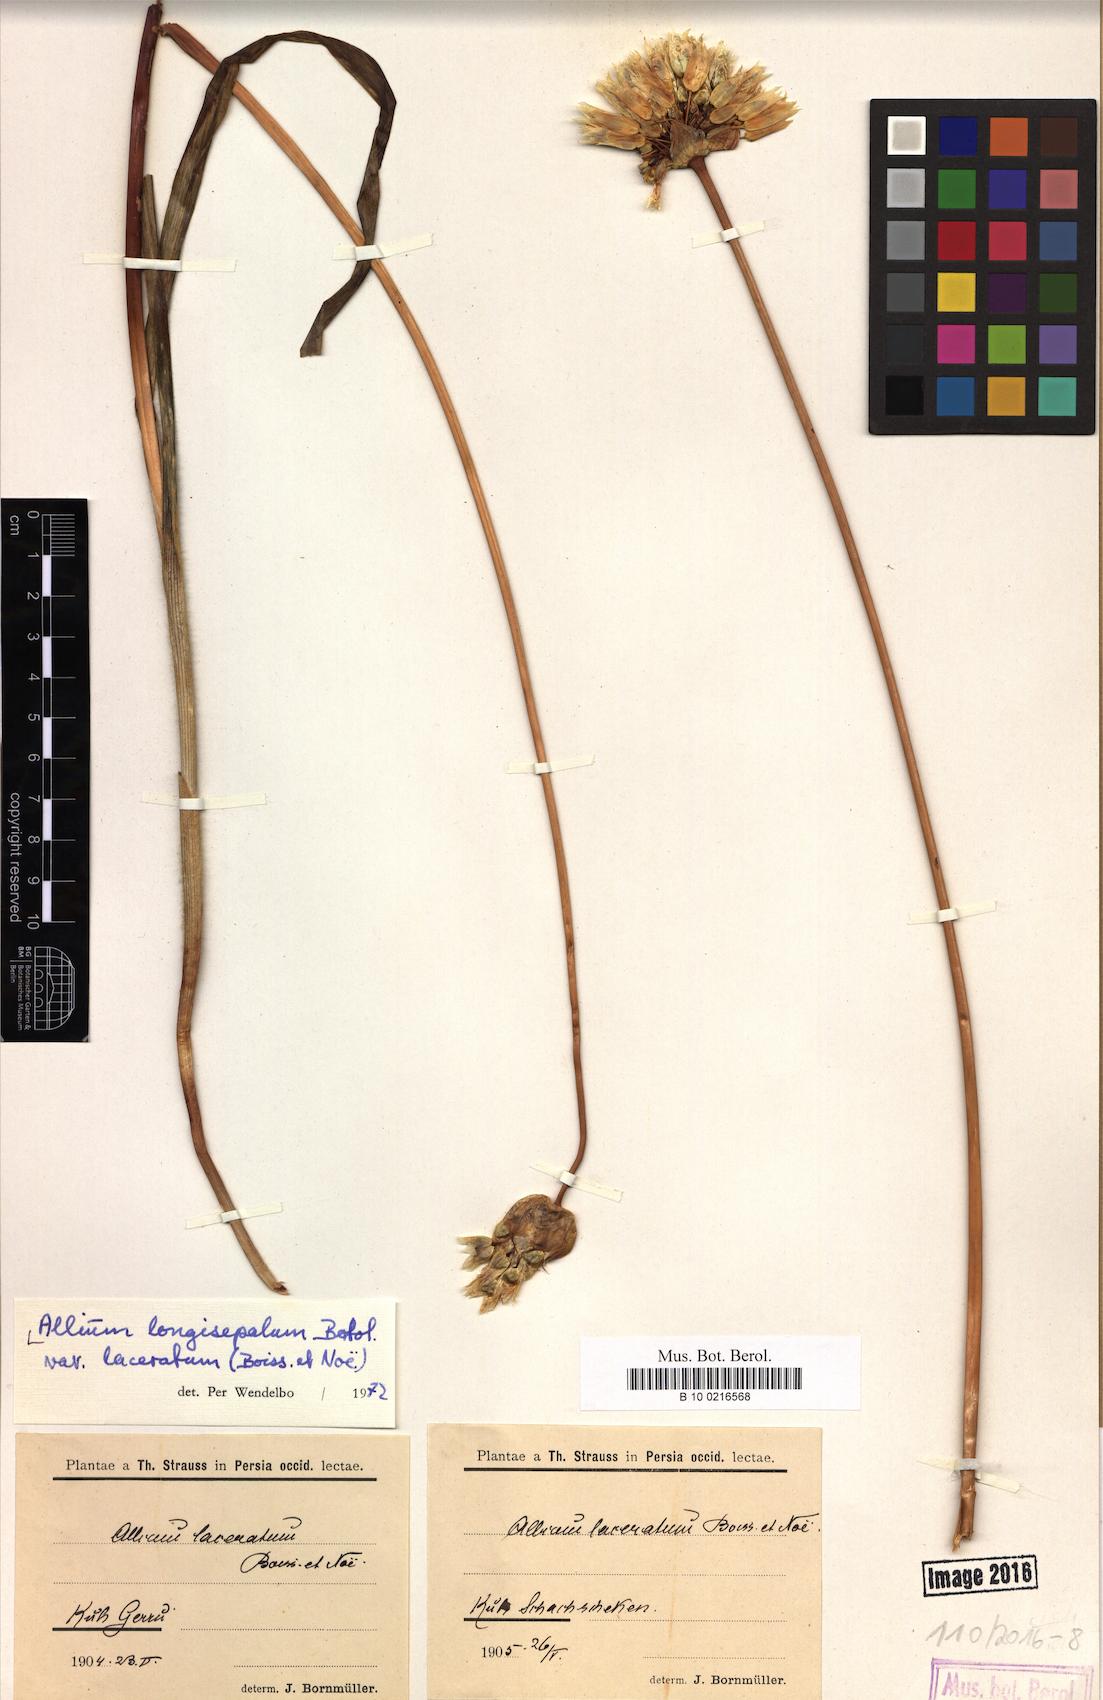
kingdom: Plantae
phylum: Tracheophyta
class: Liliopsida
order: Asparagales
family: Amaryllidaceae
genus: Allium
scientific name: Allium longisepalum
